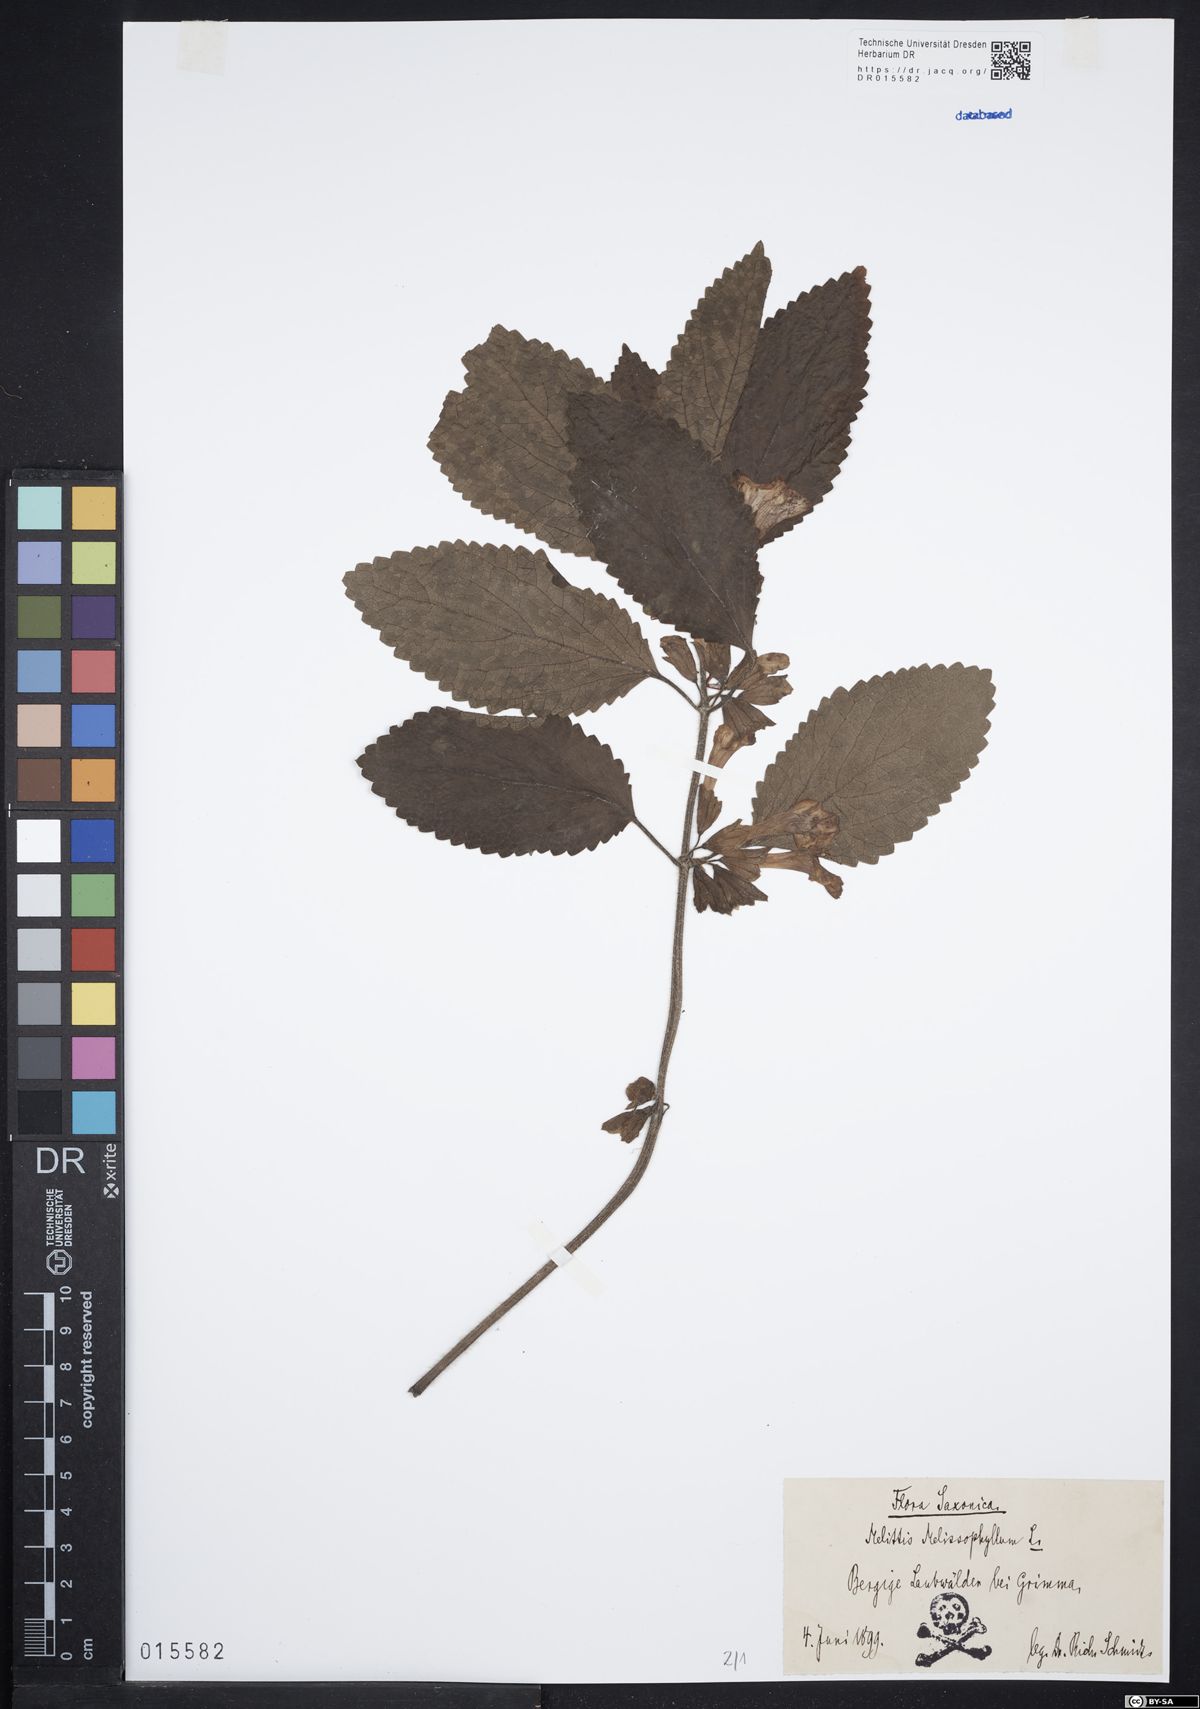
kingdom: Plantae
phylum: Tracheophyta
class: Magnoliopsida
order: Lamiales
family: Lamiaceae
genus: Melittis
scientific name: Melittis melissophyllum
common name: Bastard balm
